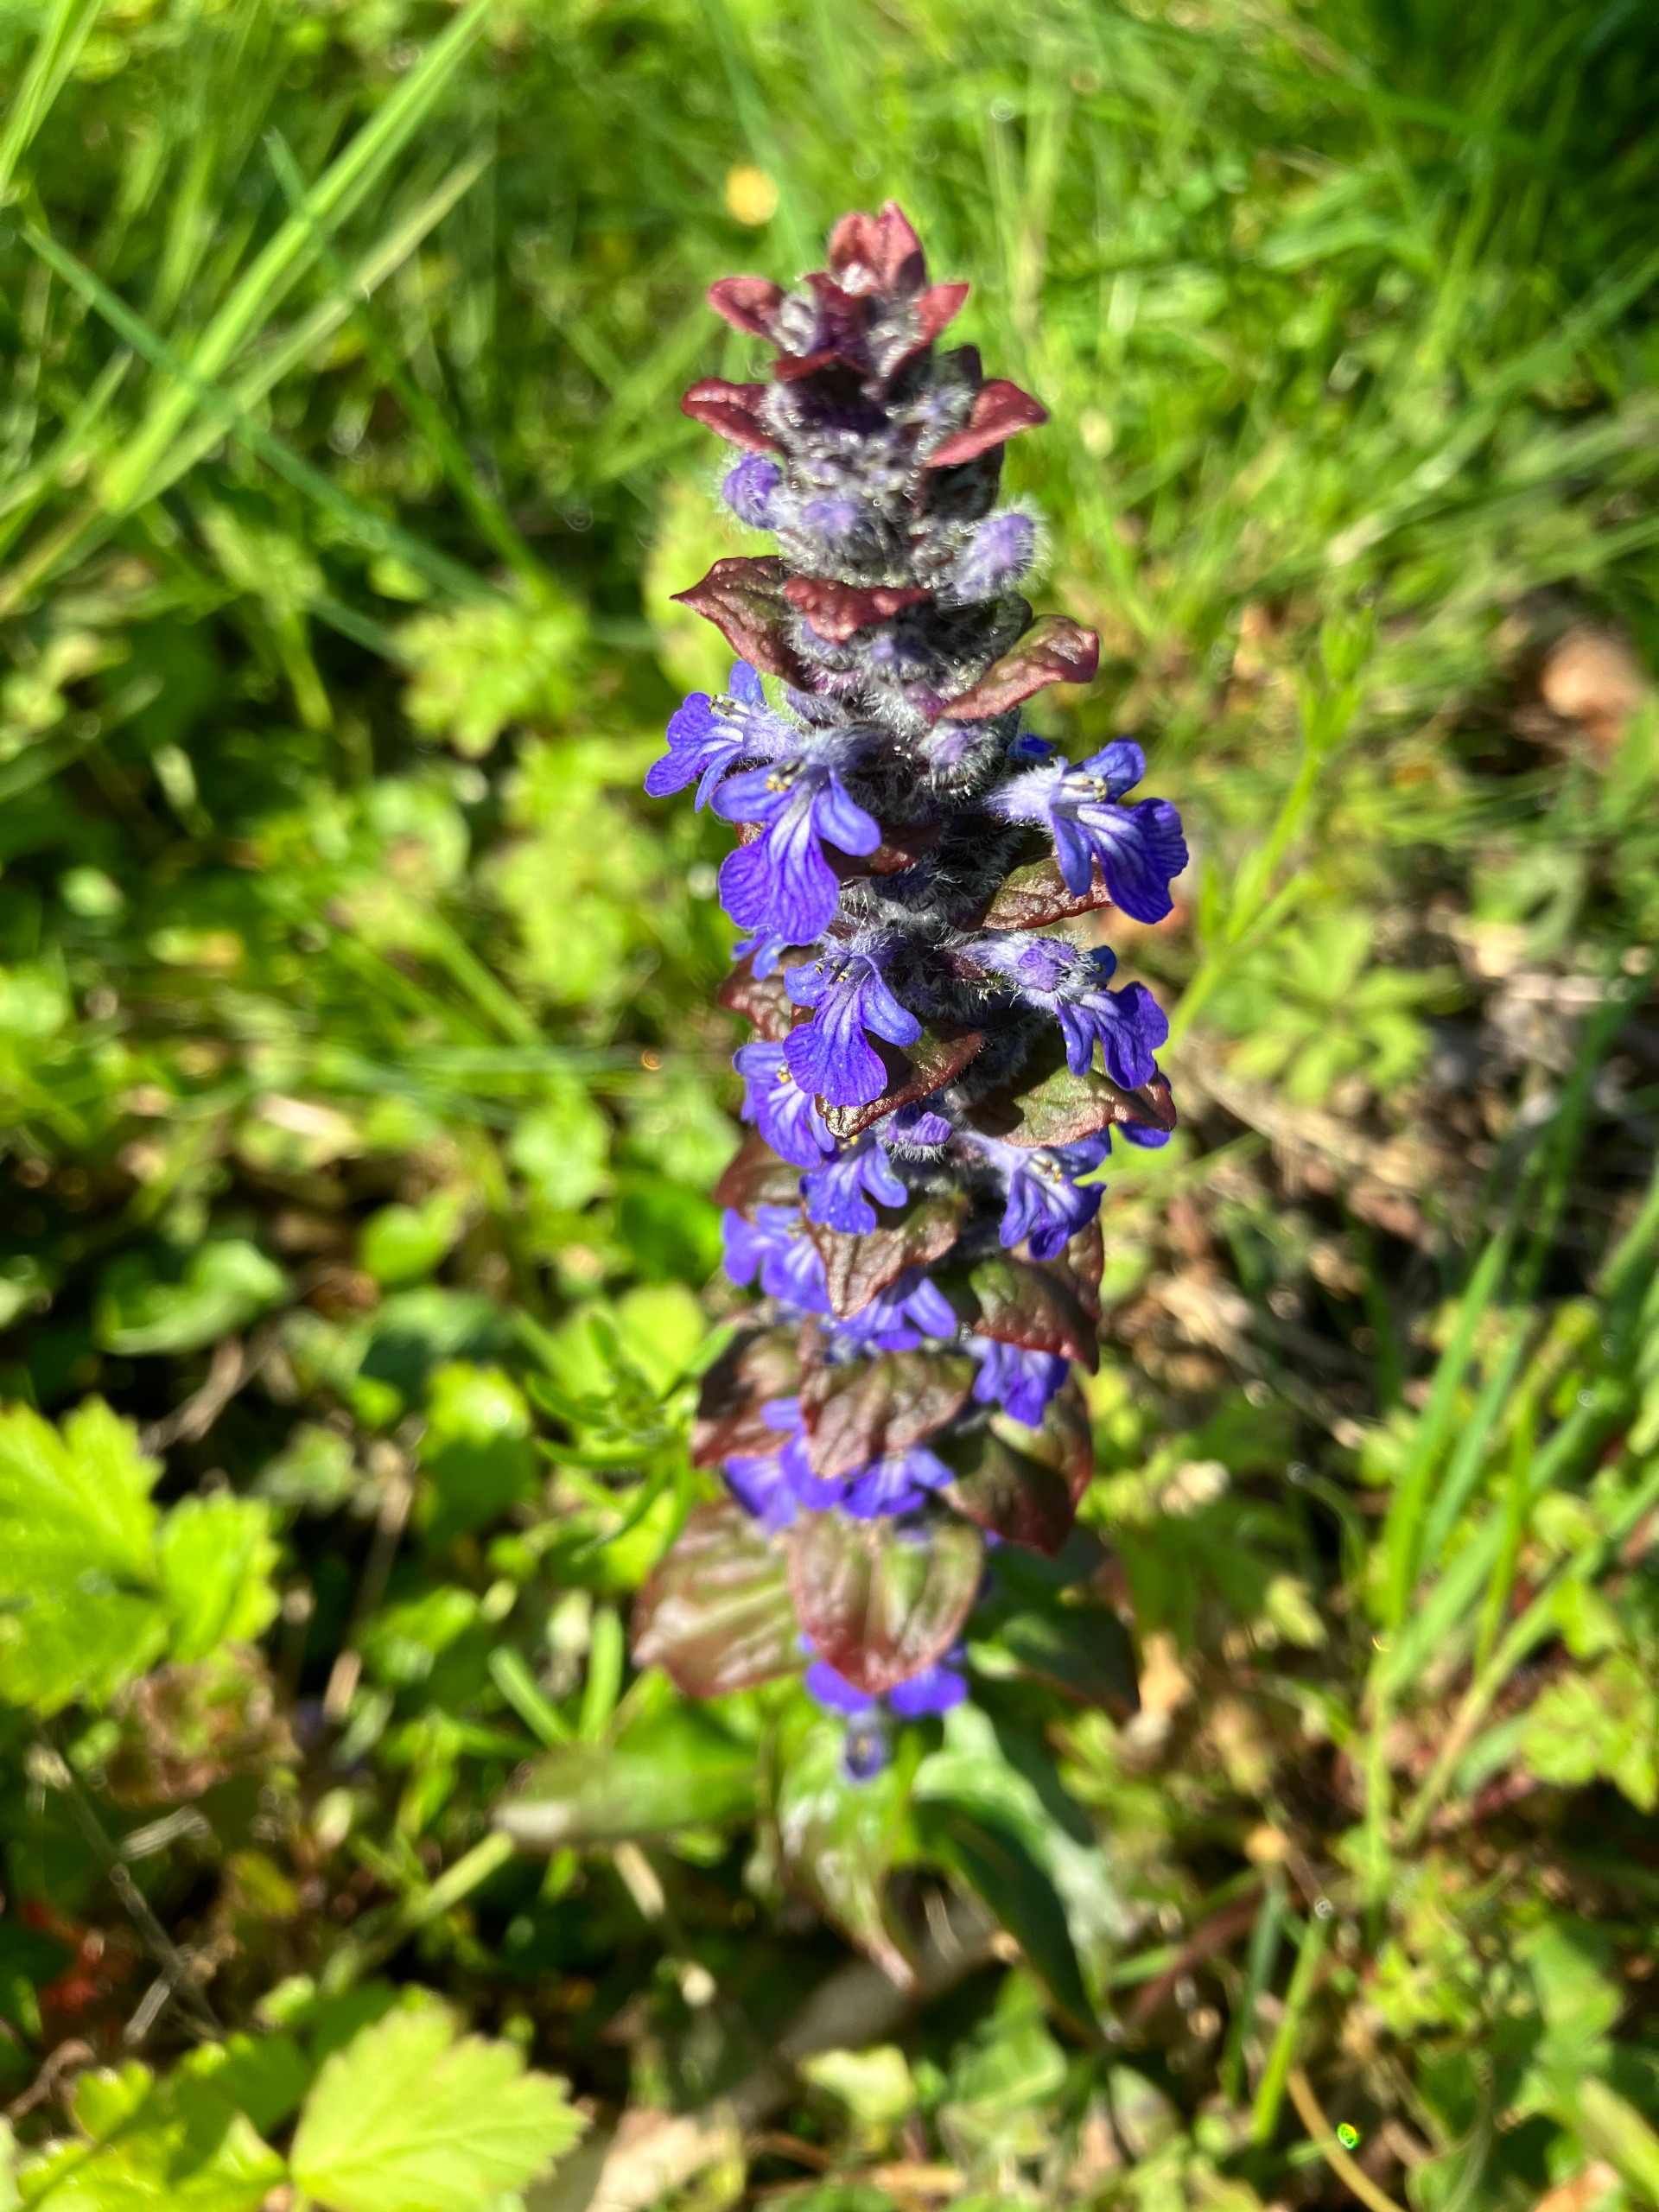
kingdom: Plantae
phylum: Tracheophyta
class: Magnoliopsida
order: Lamiales
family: Lamiaceae
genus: Ajuga
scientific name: Ajuga reptans
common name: Krybende læbeløs
